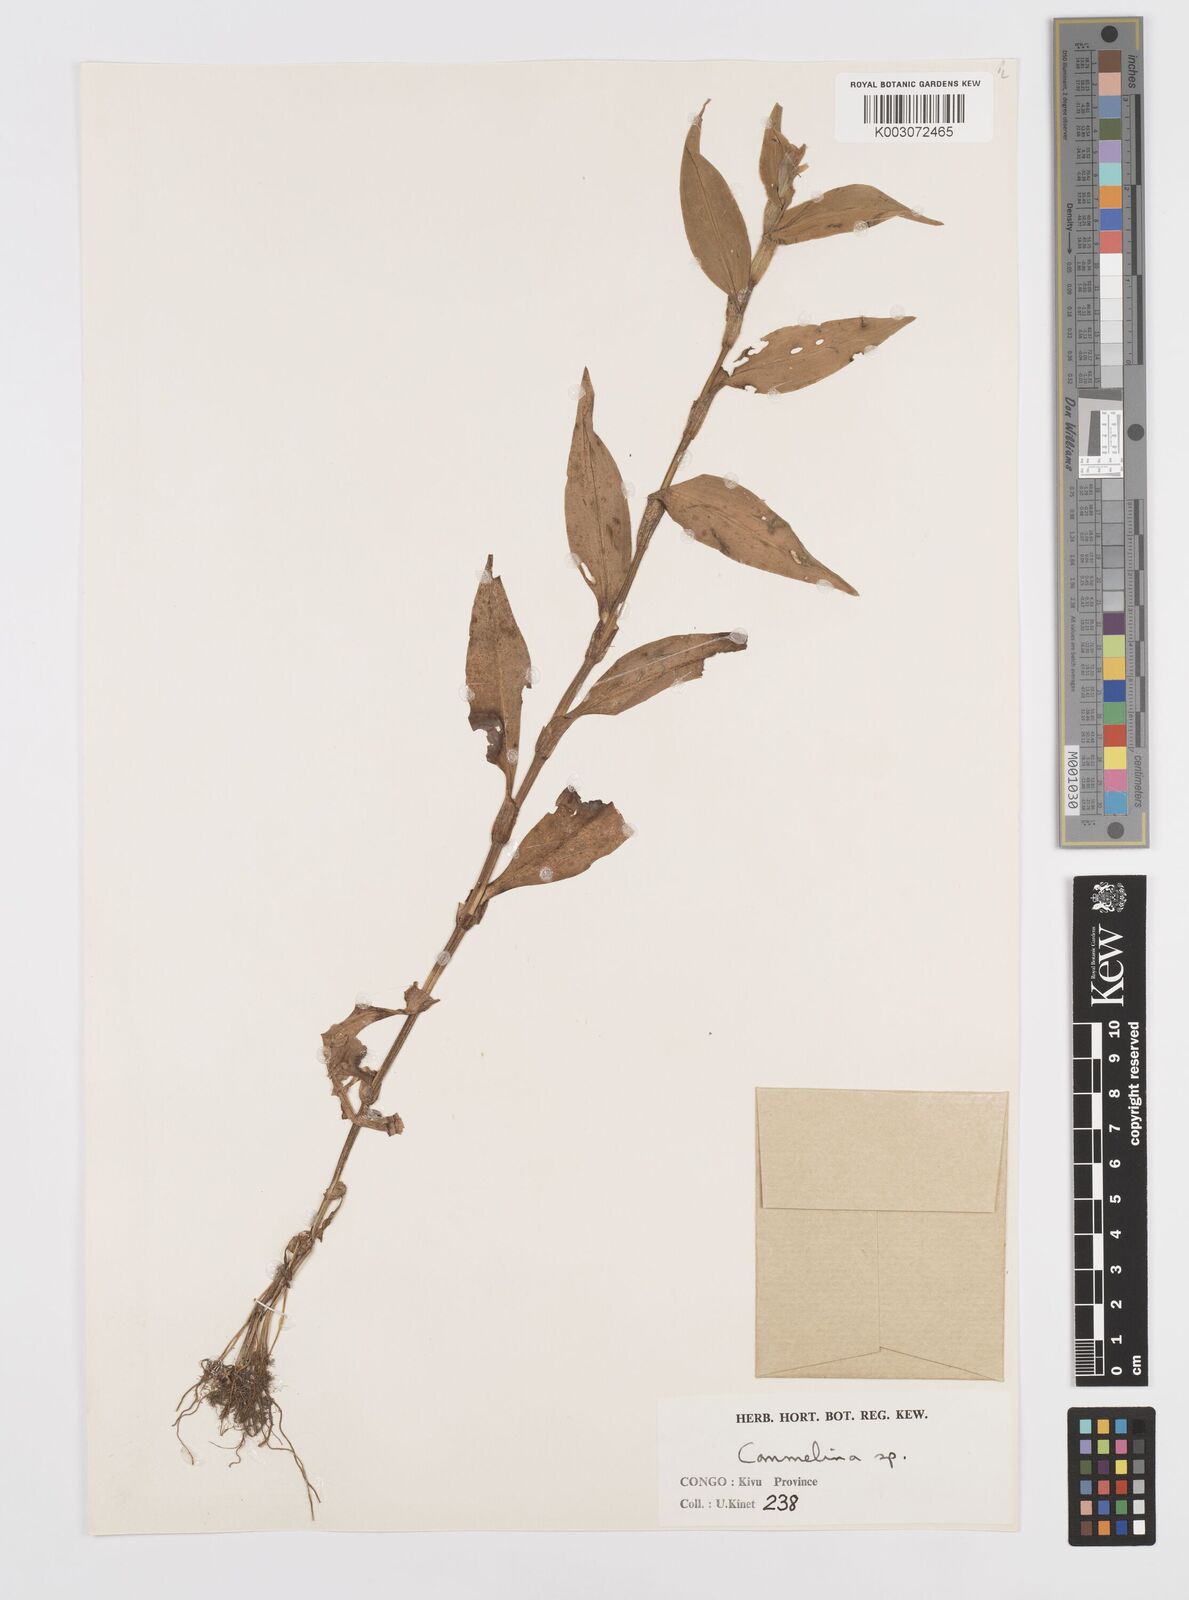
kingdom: Plantae
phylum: Tracheophyta
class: Liliopsida
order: Commelinales
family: Commelinaceae
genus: Commelina
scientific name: Commelina
